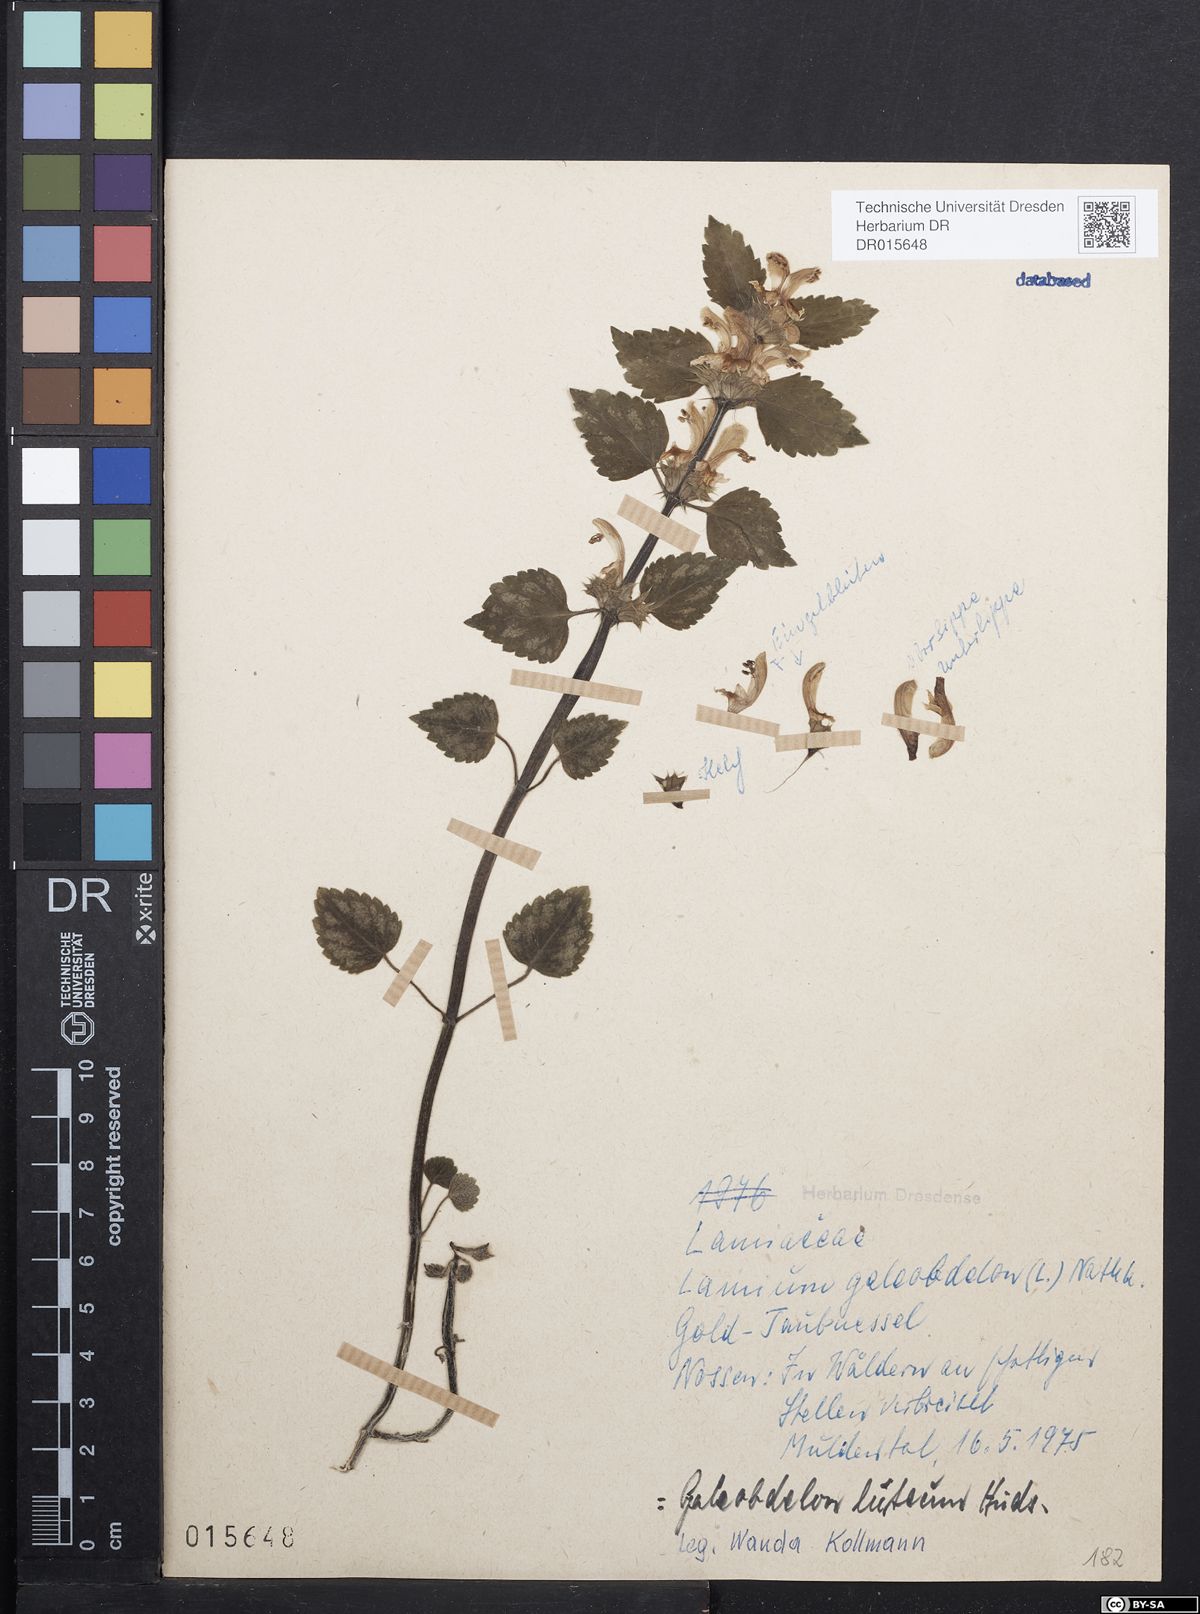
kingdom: Plantae
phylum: Tracheophyta
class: Magnoliopsida
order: Lamiales
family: Lamiaceae
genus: Lamium
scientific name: Lamium galeobdolon
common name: Yellow archangel
